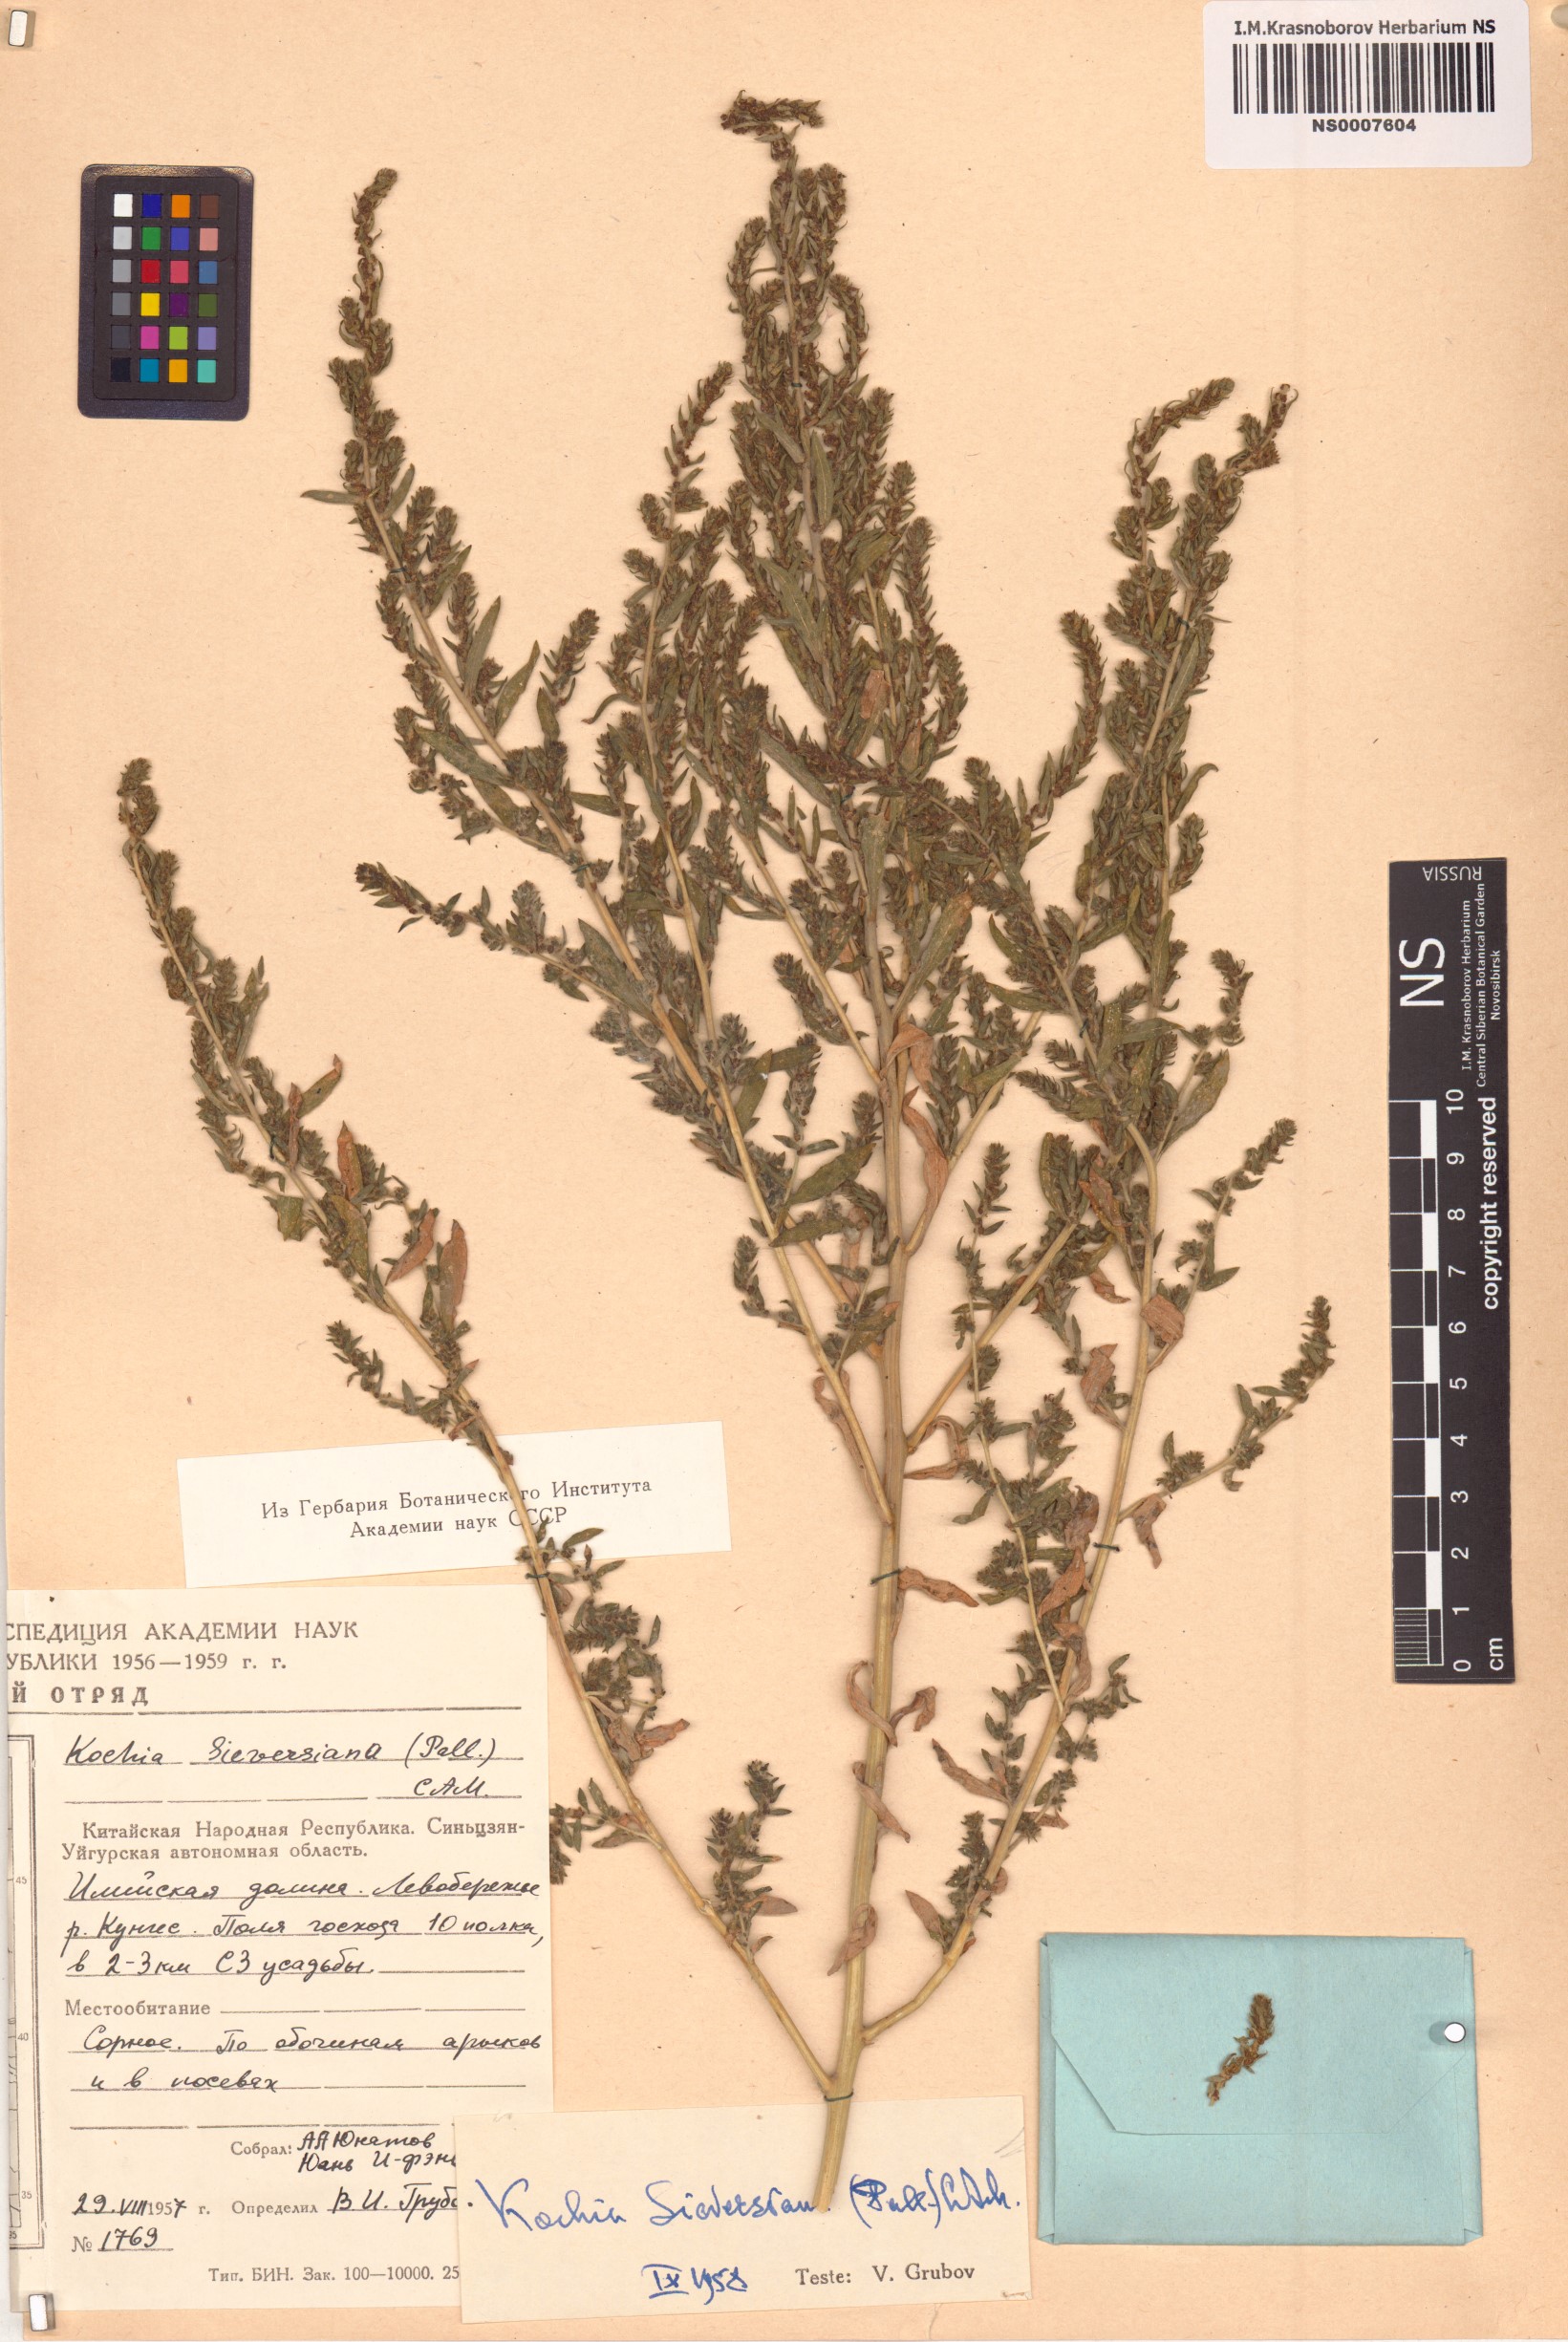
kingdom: Plantae
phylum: Tracheophyta
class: Magnoliopsida
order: Caryophyllales
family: Amaranthaceae
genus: Bassia
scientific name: Bassia scoparia
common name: Belvedere
